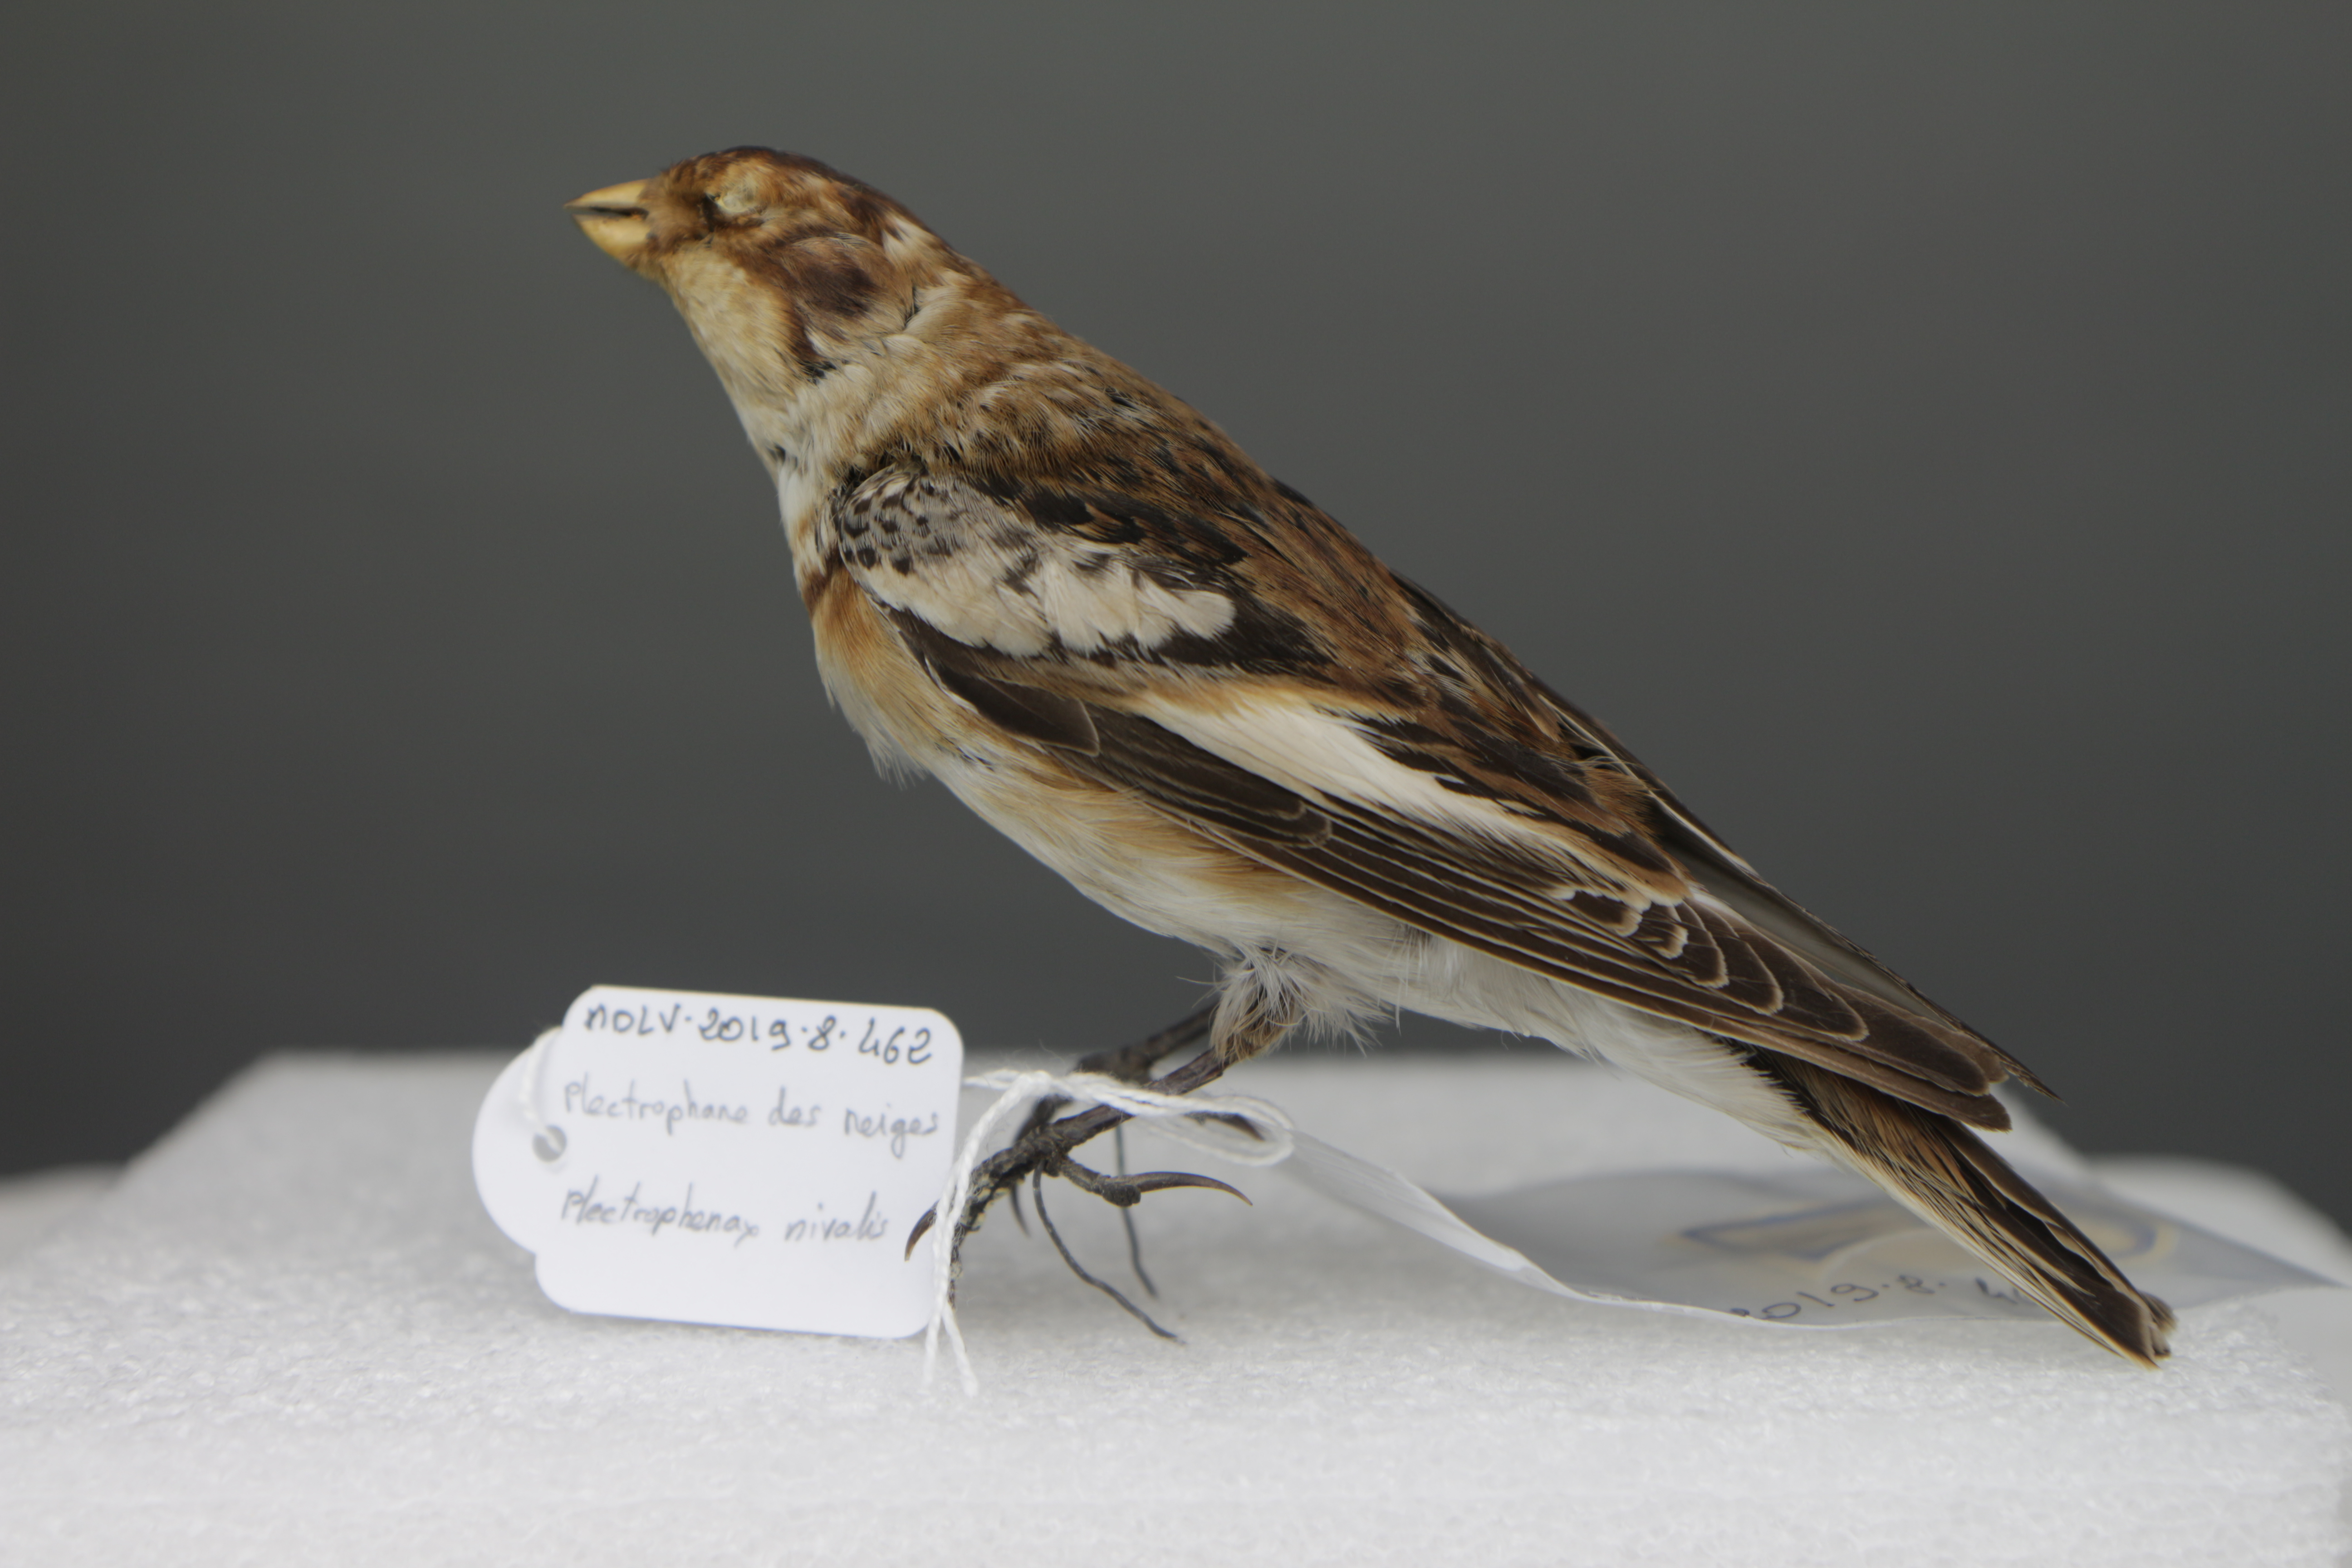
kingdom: Animalia
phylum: Chordata
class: Aves
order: Passeriformes
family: Calcariidae
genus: Plectrophenax
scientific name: Plectrophenax nivalis
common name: Snow bunting
